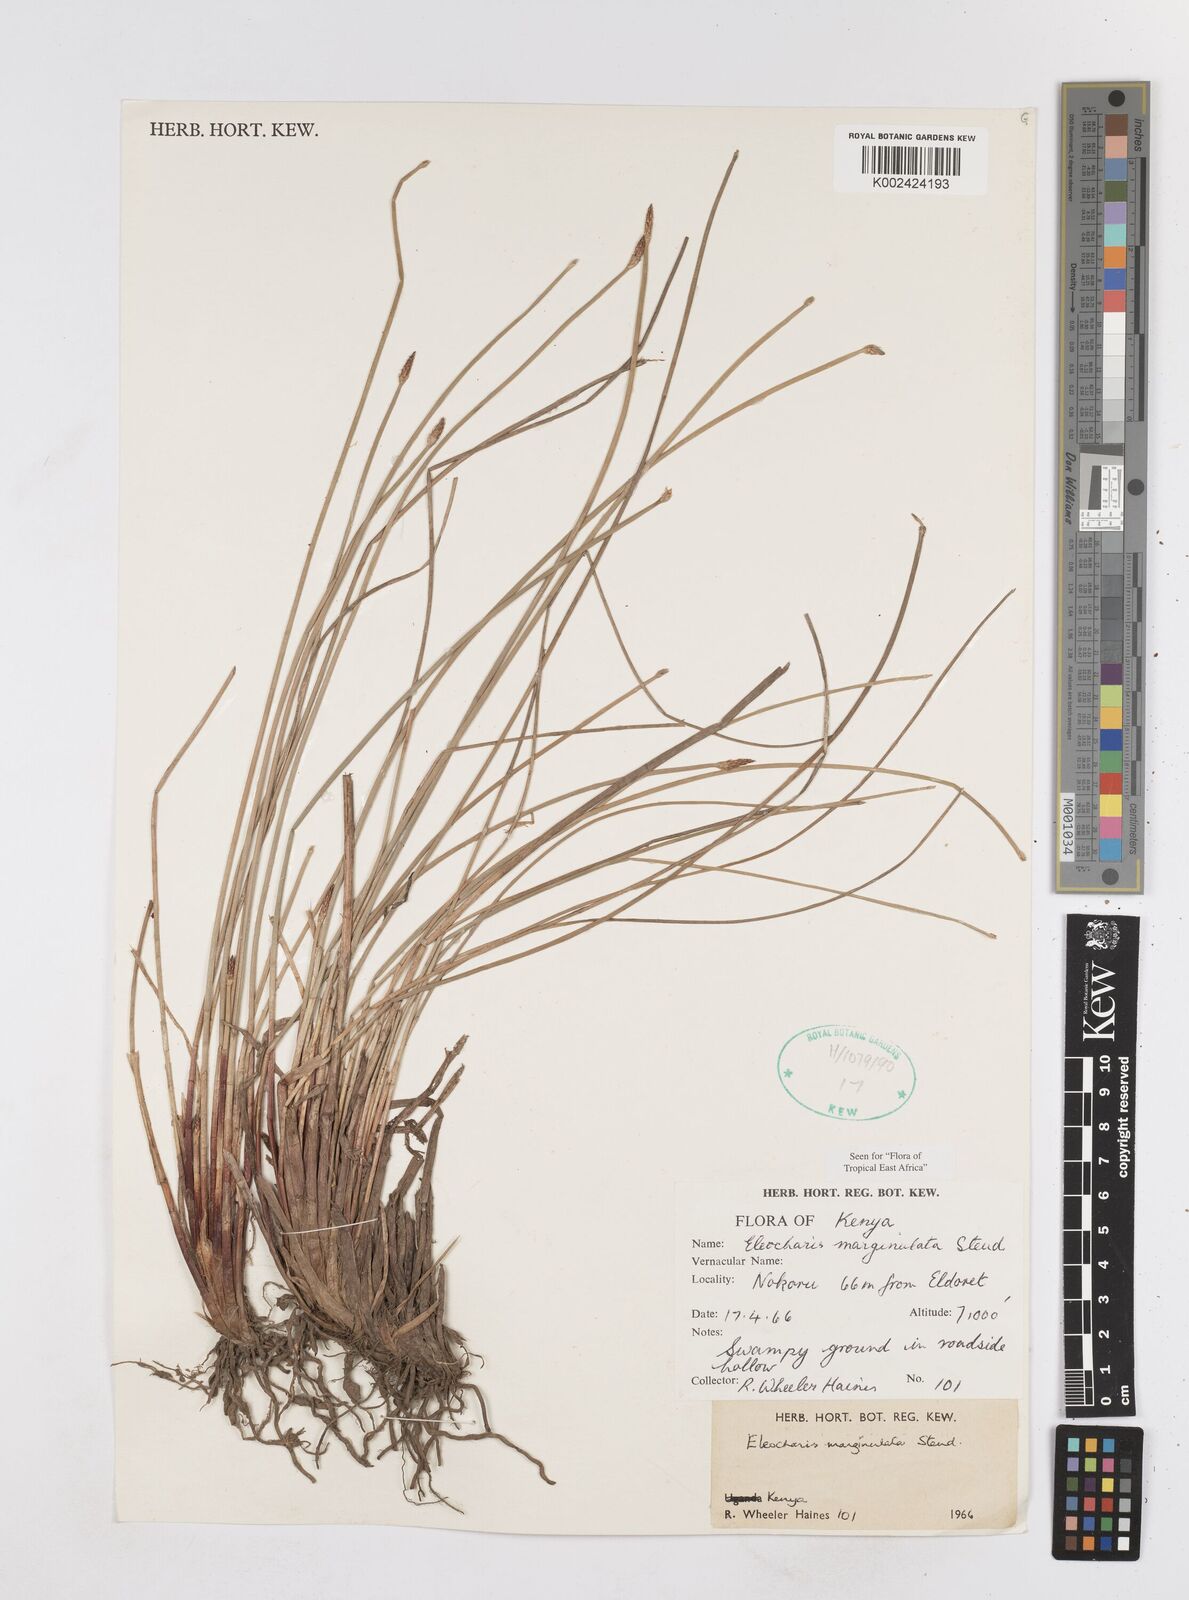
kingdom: Plantae
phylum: Tracheophyta
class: Liliopsida
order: Poales
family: Cyperaceae
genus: Eleocharis
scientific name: Eleocharis marginulata
